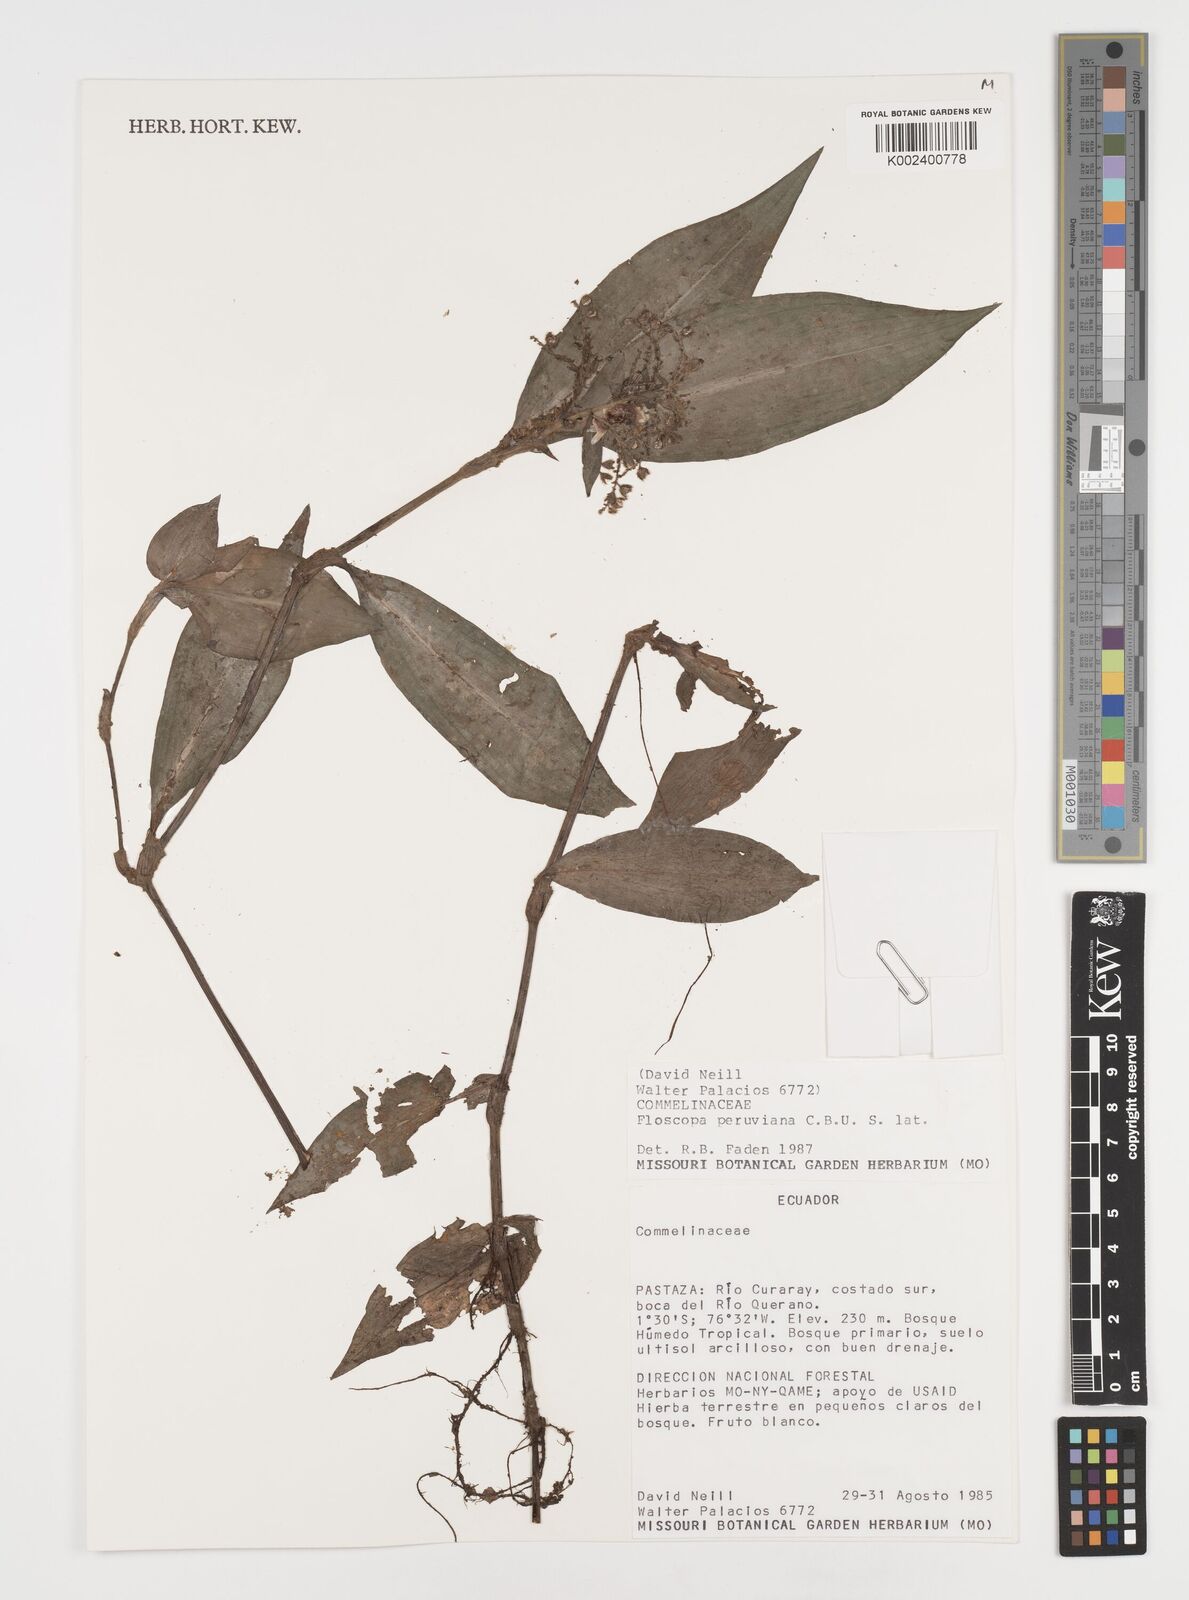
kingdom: Plantae
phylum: Tracheophyta
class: Liliopsida
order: Commelinales
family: Commelinaceae
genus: Floscopa
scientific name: Floscopa peruviana
